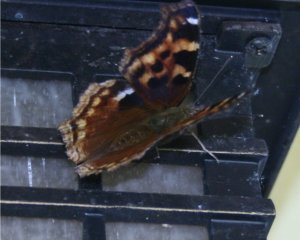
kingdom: Animalia
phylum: Arthropoda
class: Insecta
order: Lepidoptera
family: Nymphalidae
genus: Polygonia
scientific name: Polygonia vaualbum
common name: Compton Tortoiseshell
